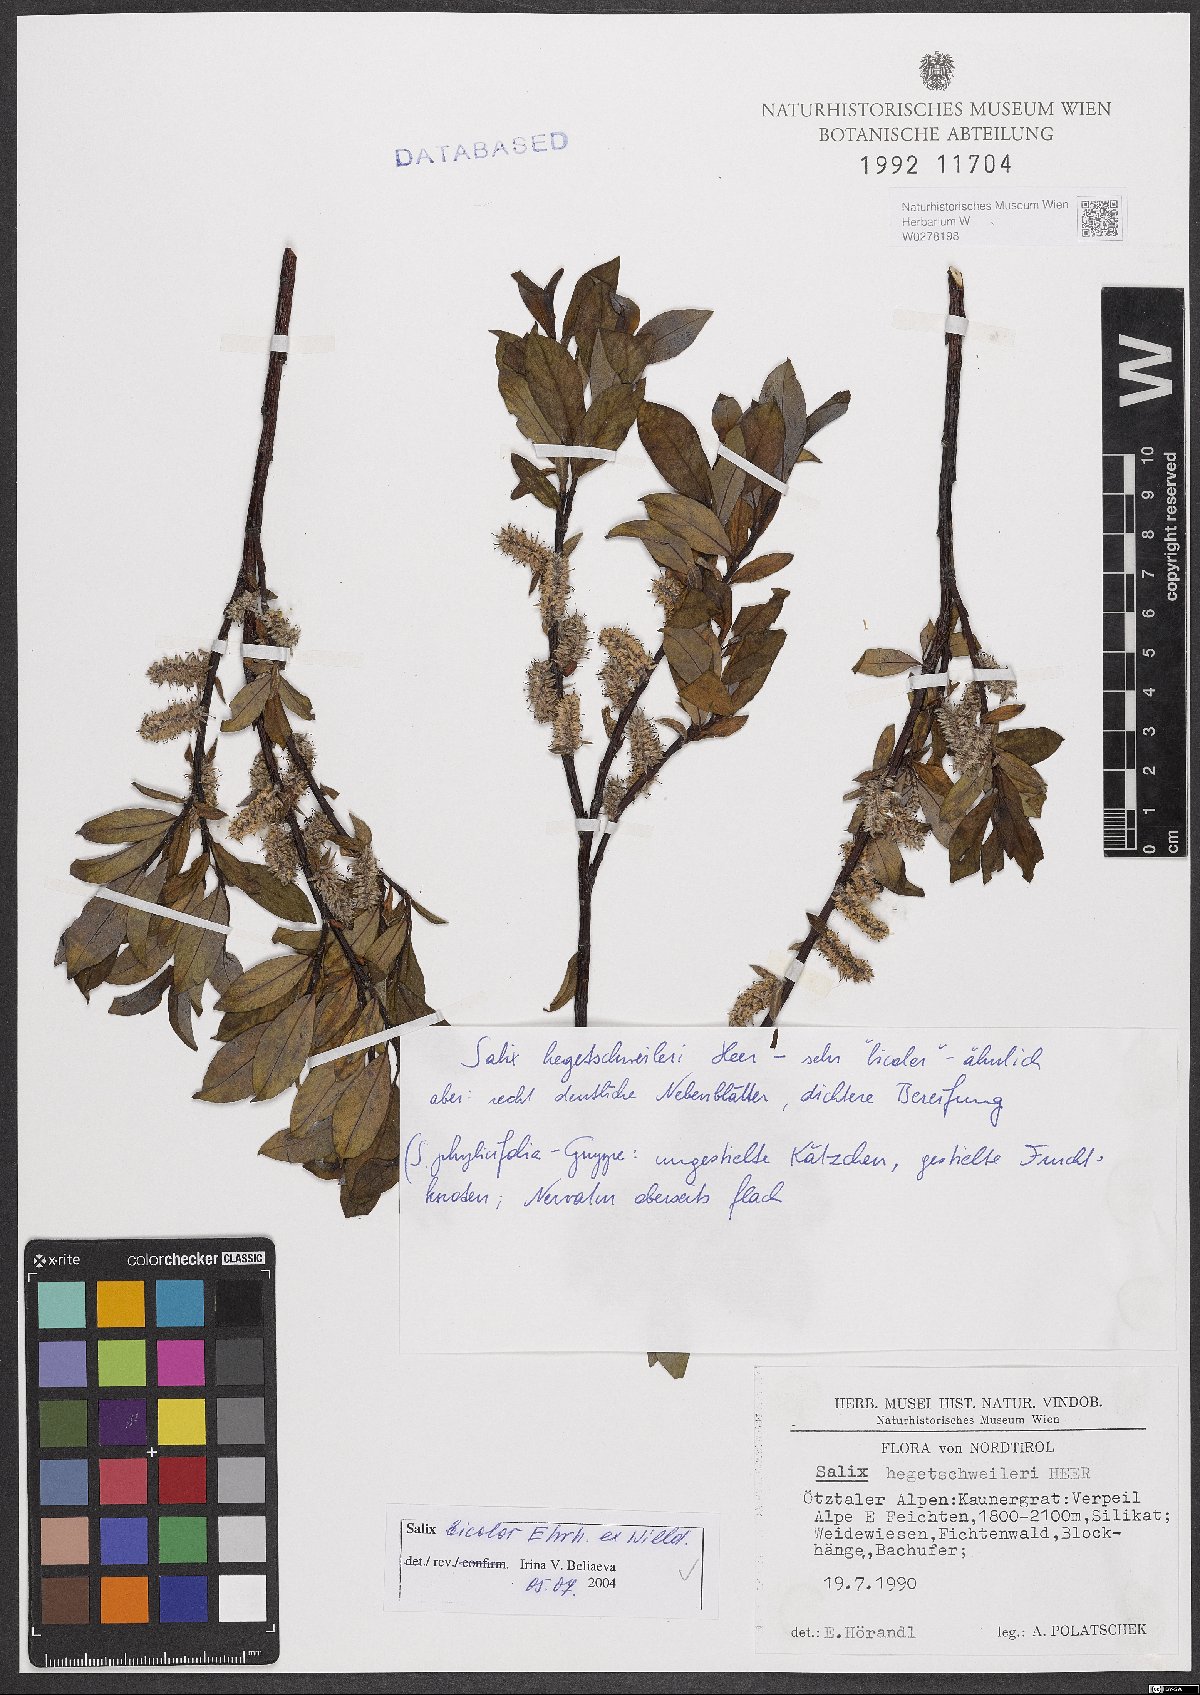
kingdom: Plantae
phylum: Tracheophyta
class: Magnoliopsida
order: Malpighiales
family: Salicaceae
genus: Salix
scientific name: Salix bicolor
